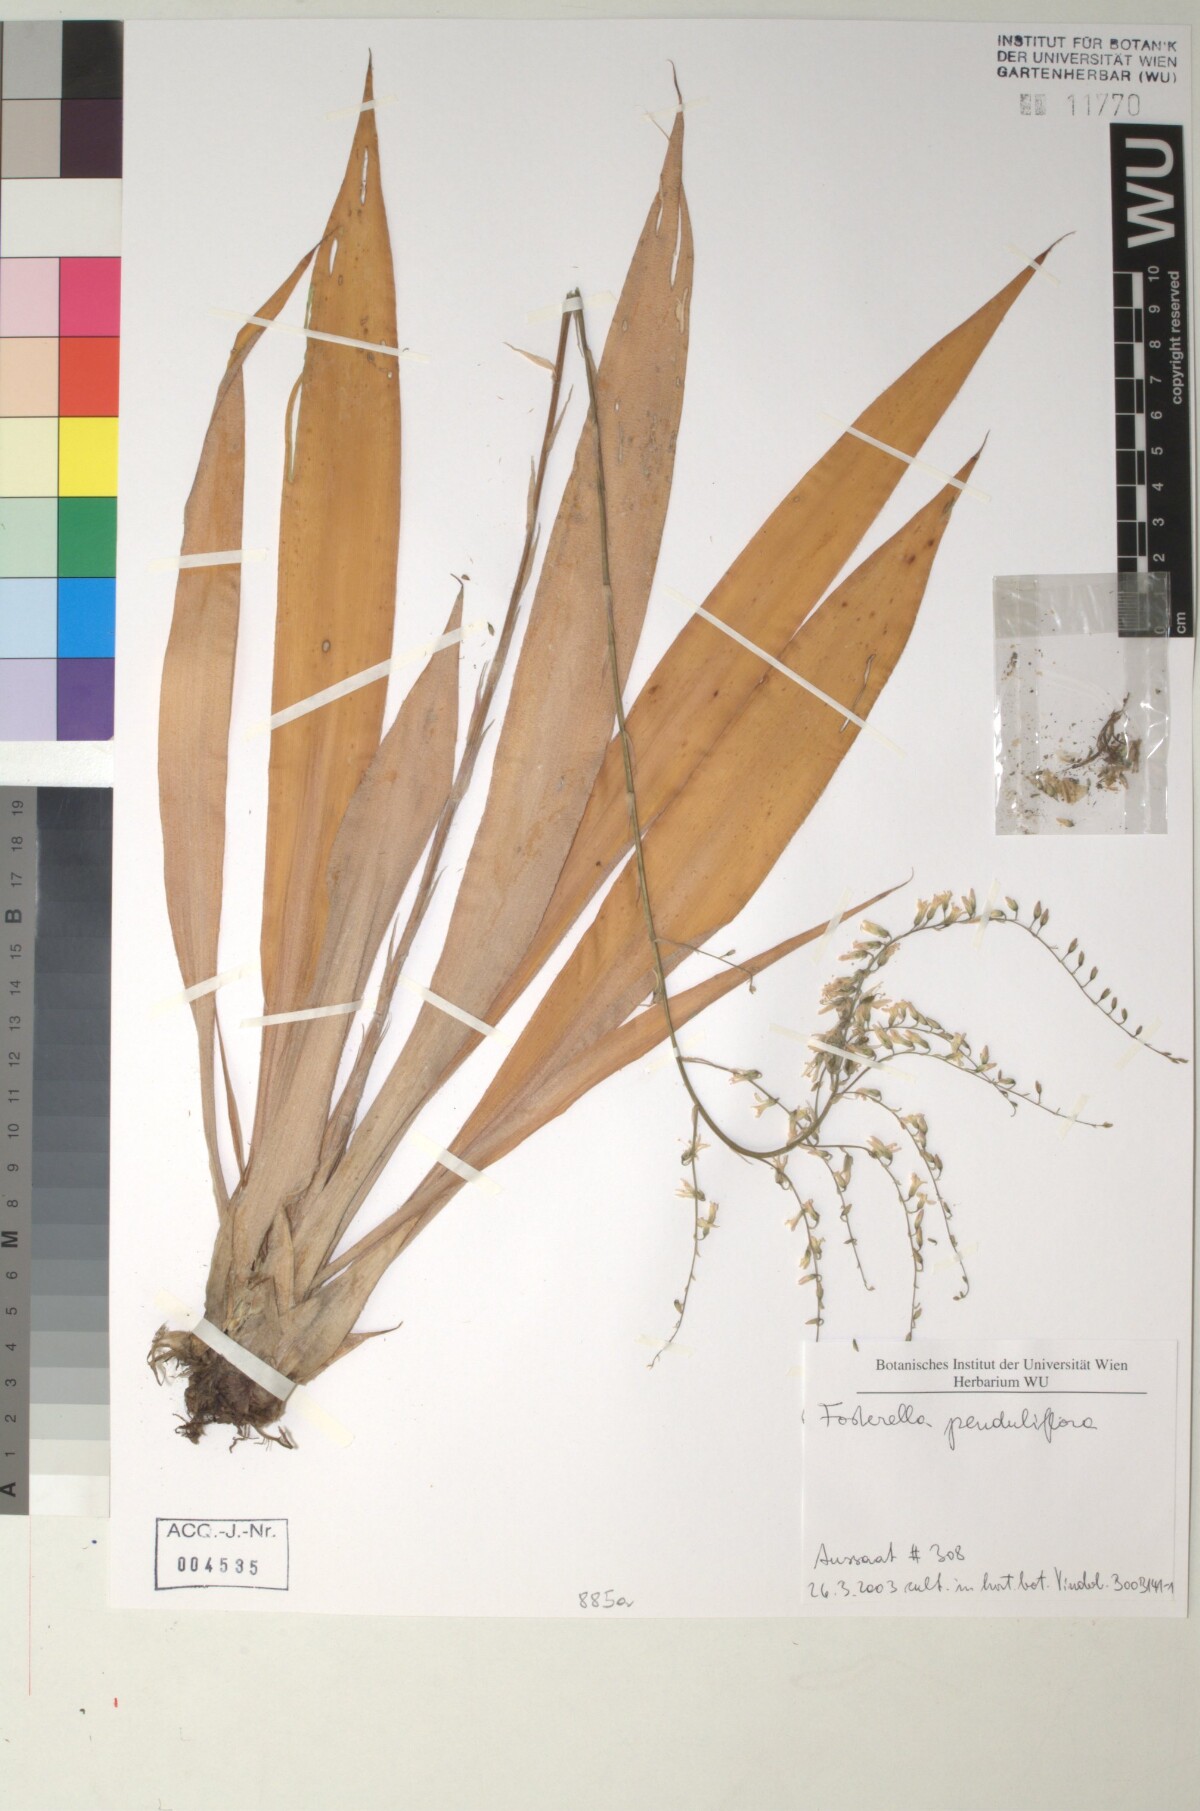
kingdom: Plantae
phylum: Tracheophyta
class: Liliopsida
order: Poales
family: Bromeliaceae
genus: Fosterella
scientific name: Fosterella penduliflora
